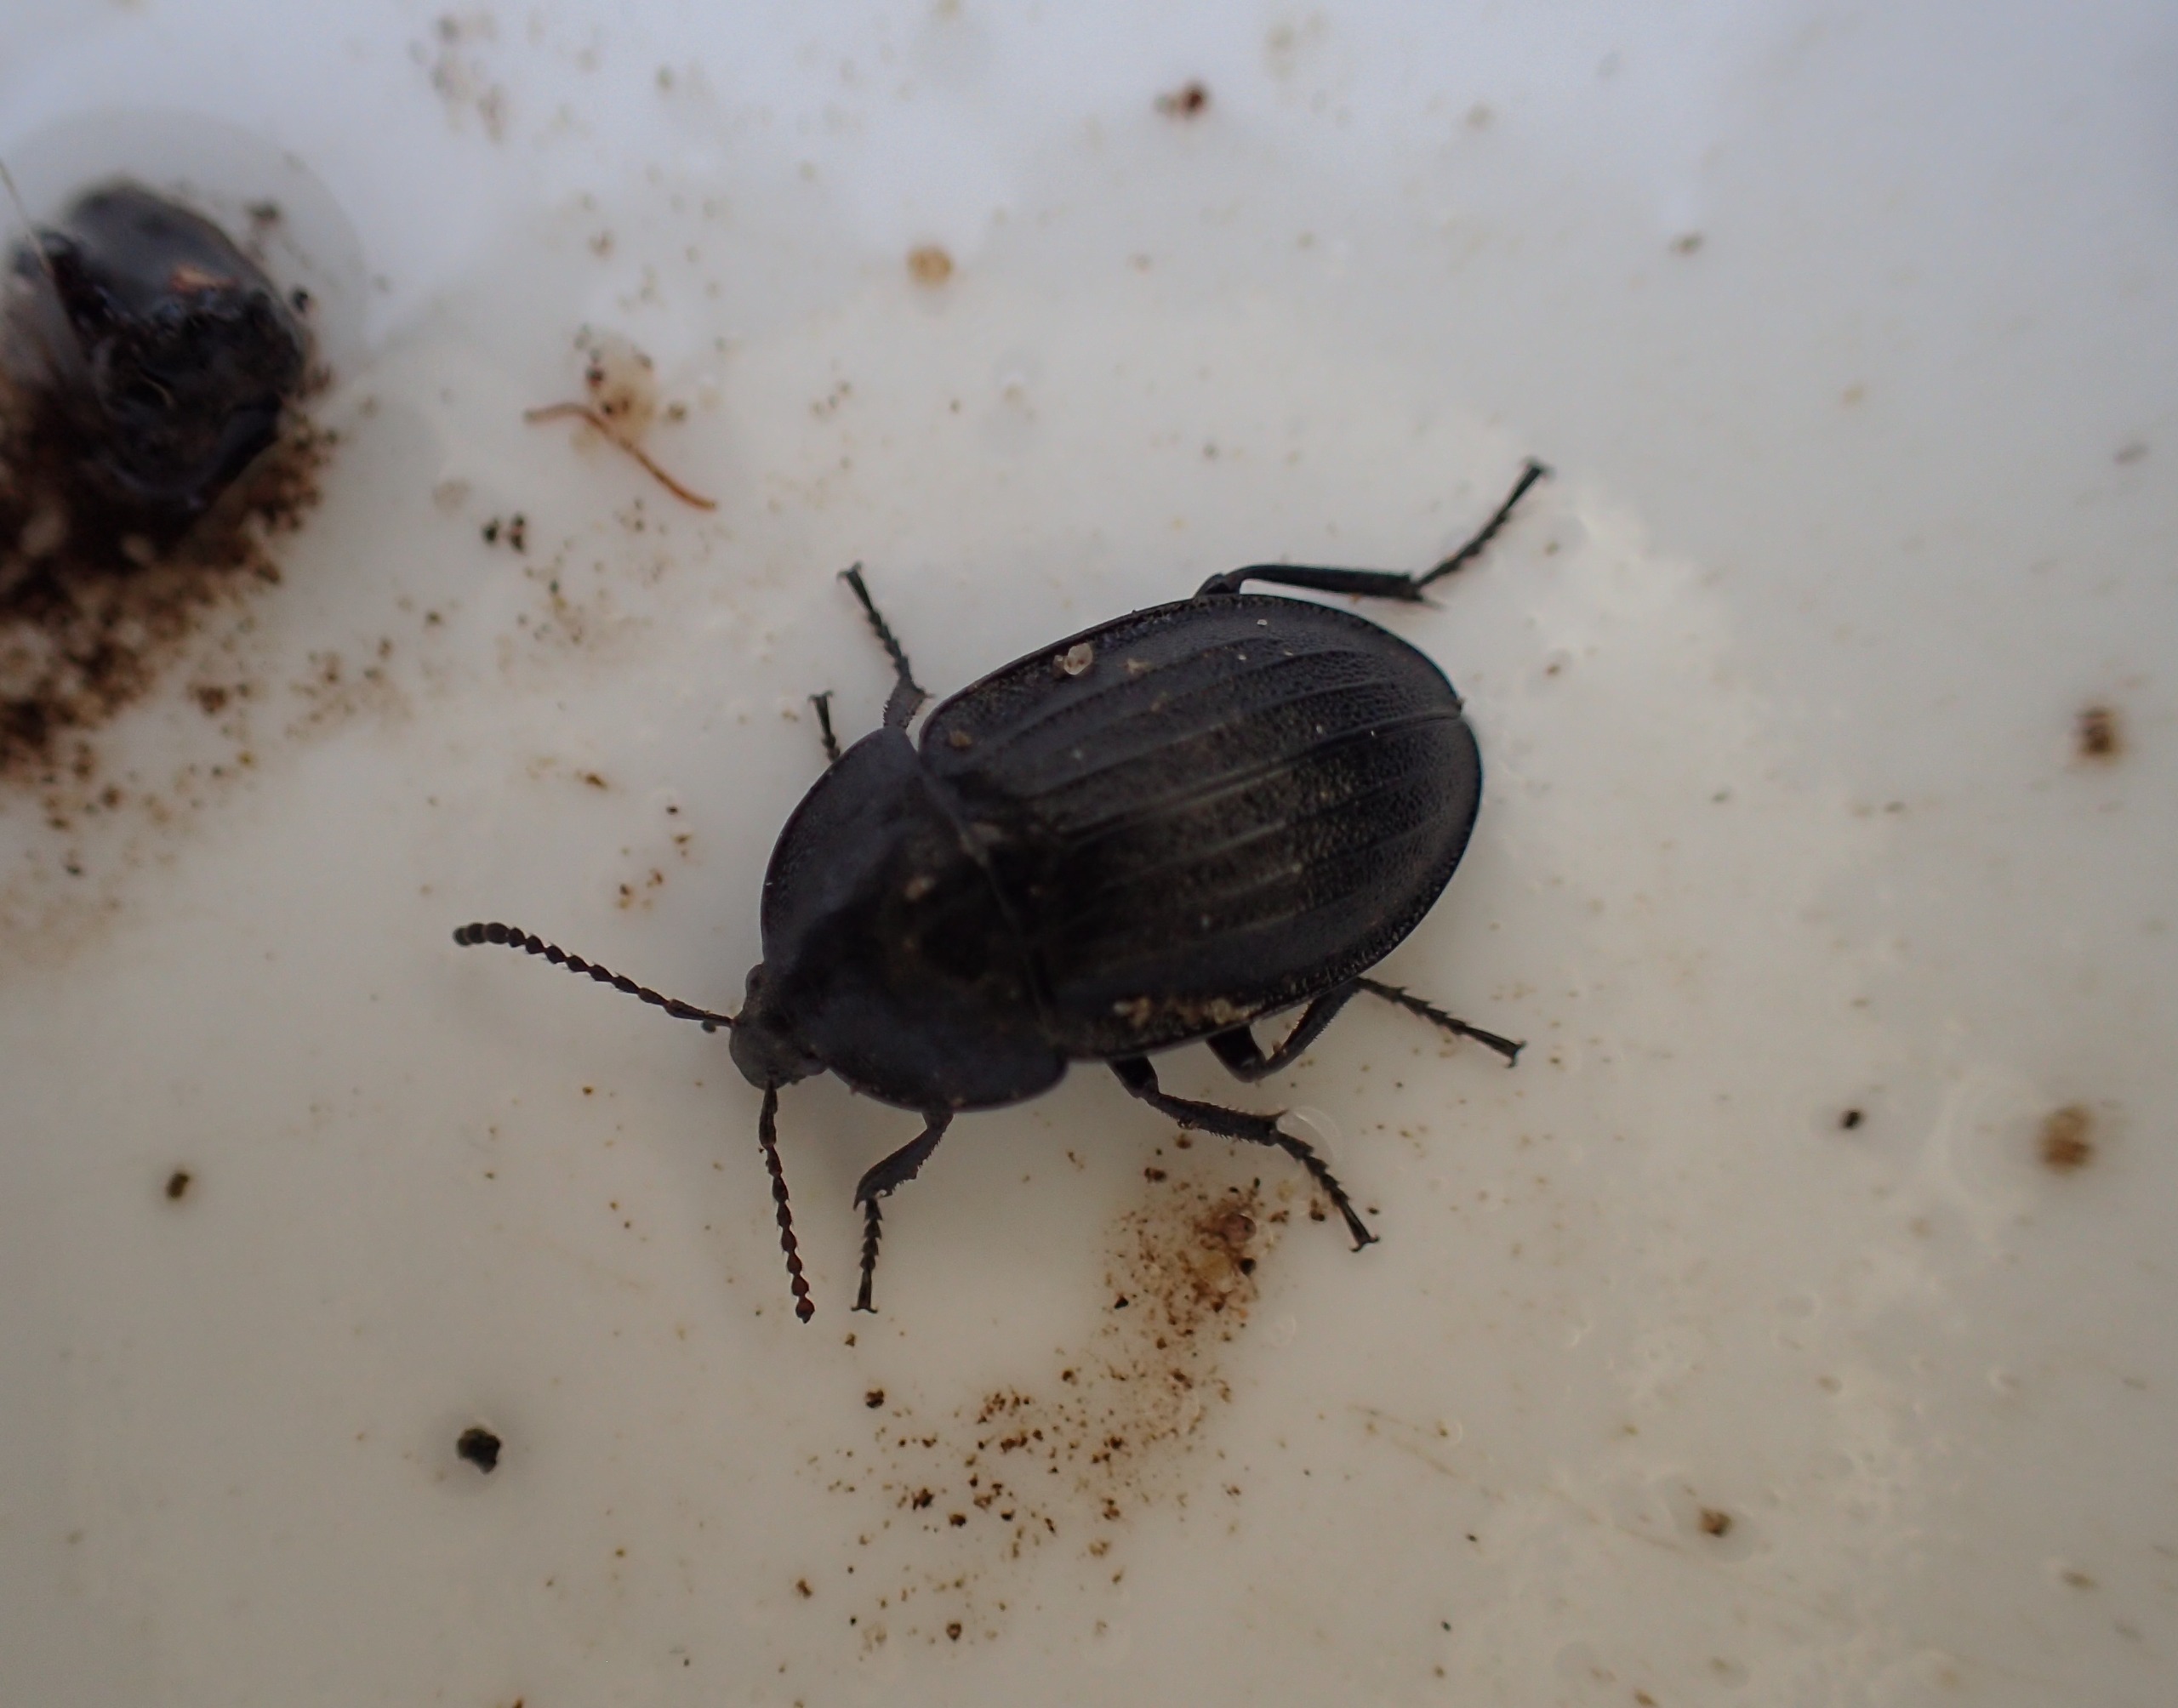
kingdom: Animalia
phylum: Arthropoda
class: Insecta
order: Coleoptera
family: Staphylinidae
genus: Silpha
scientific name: Silpha atrata
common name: Snegleådselbille
